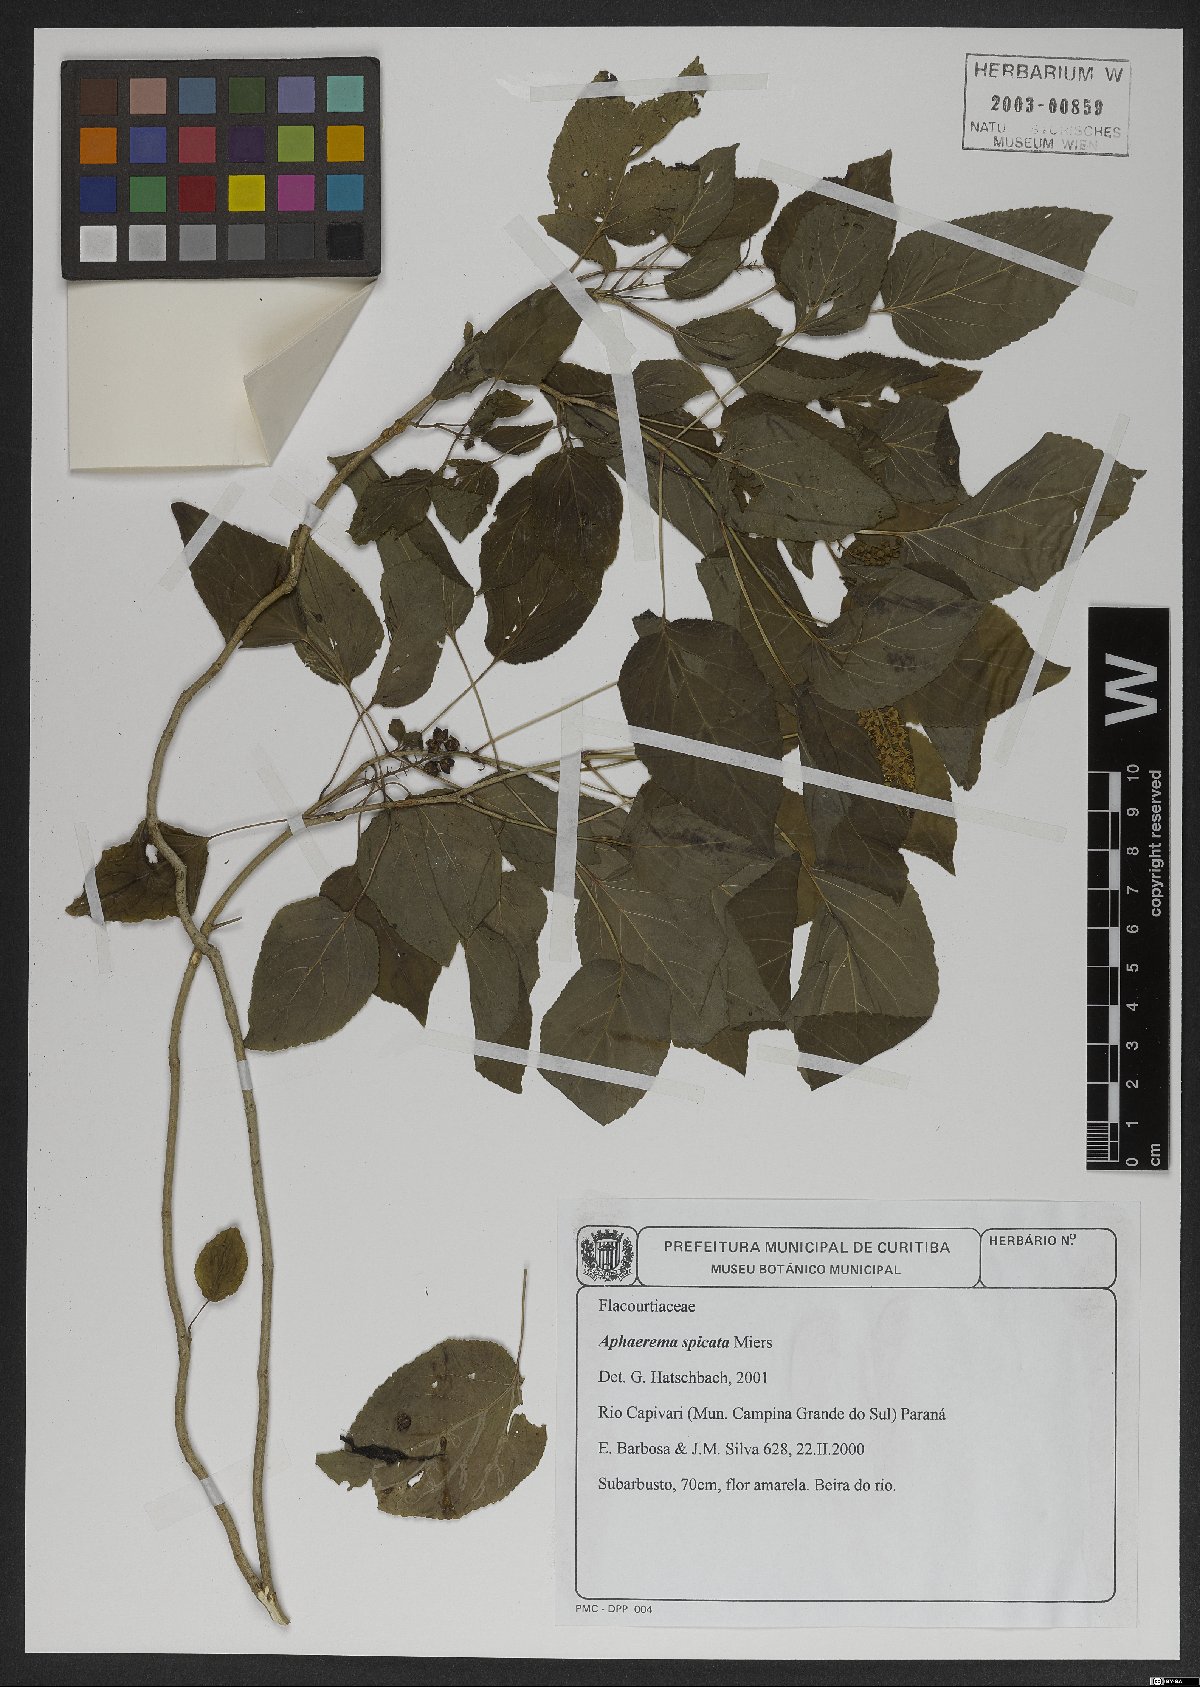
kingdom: Plantae
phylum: Tracheophyta
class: Magnoliopsida
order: Malpighiales
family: Salicaceae
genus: Abatia
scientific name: Abatia angeliana
